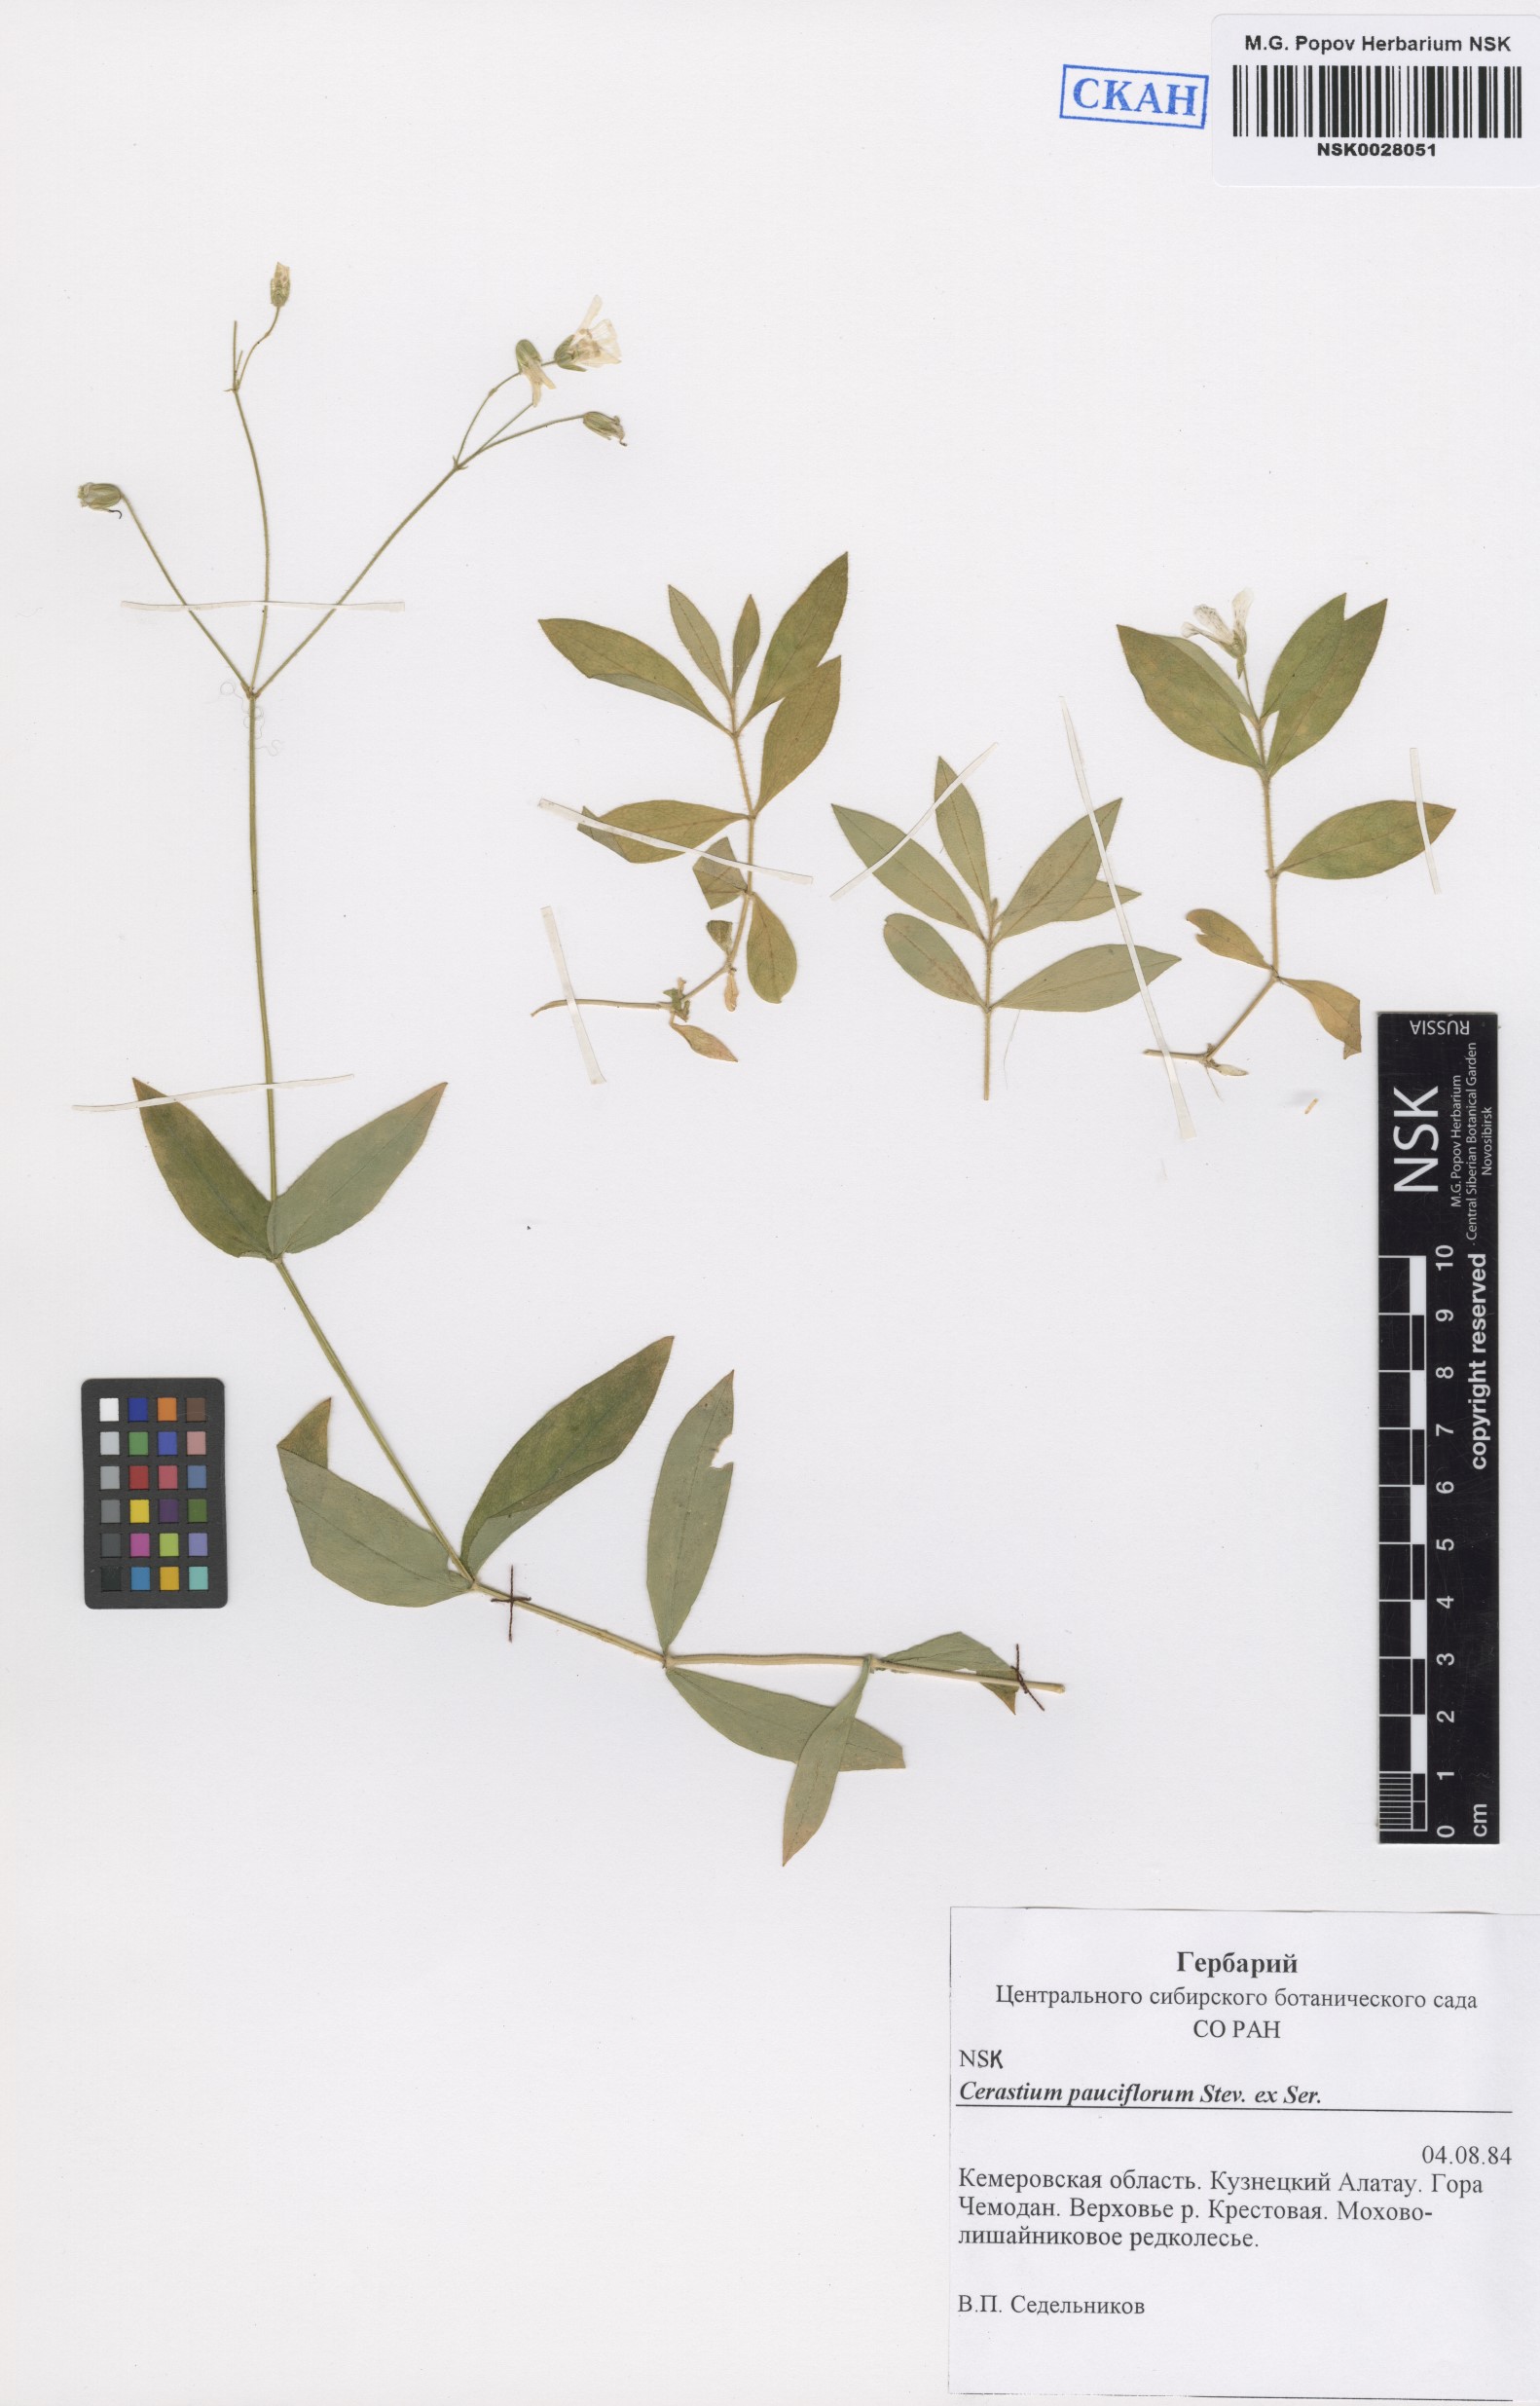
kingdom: Plantae
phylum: Tracheophyta
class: Magnoliopsida
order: Caryophyllales
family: Caryophyllaceae
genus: Cerastium
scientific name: Cerastium pauciflorum
